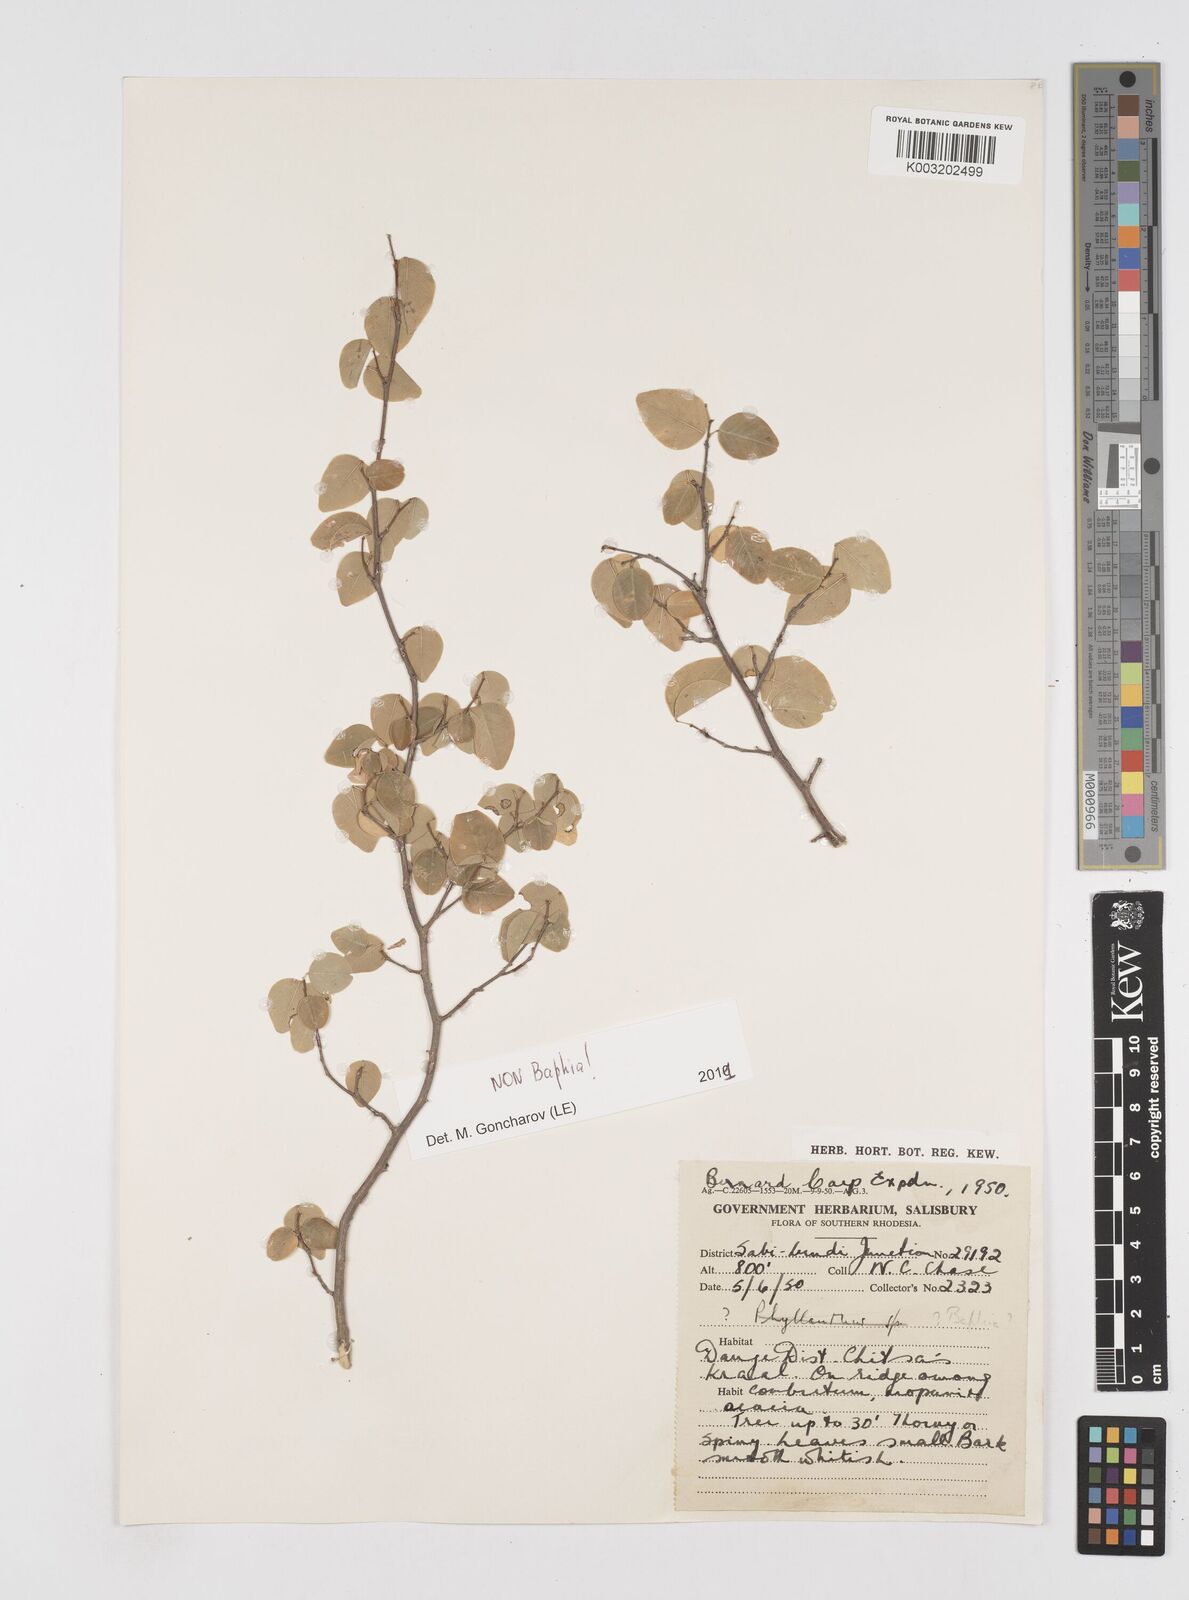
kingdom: Plantae
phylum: Tracheophyta
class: Magnoliopsida
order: Fabales
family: Fabaceae
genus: Baphia
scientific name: Baphia
